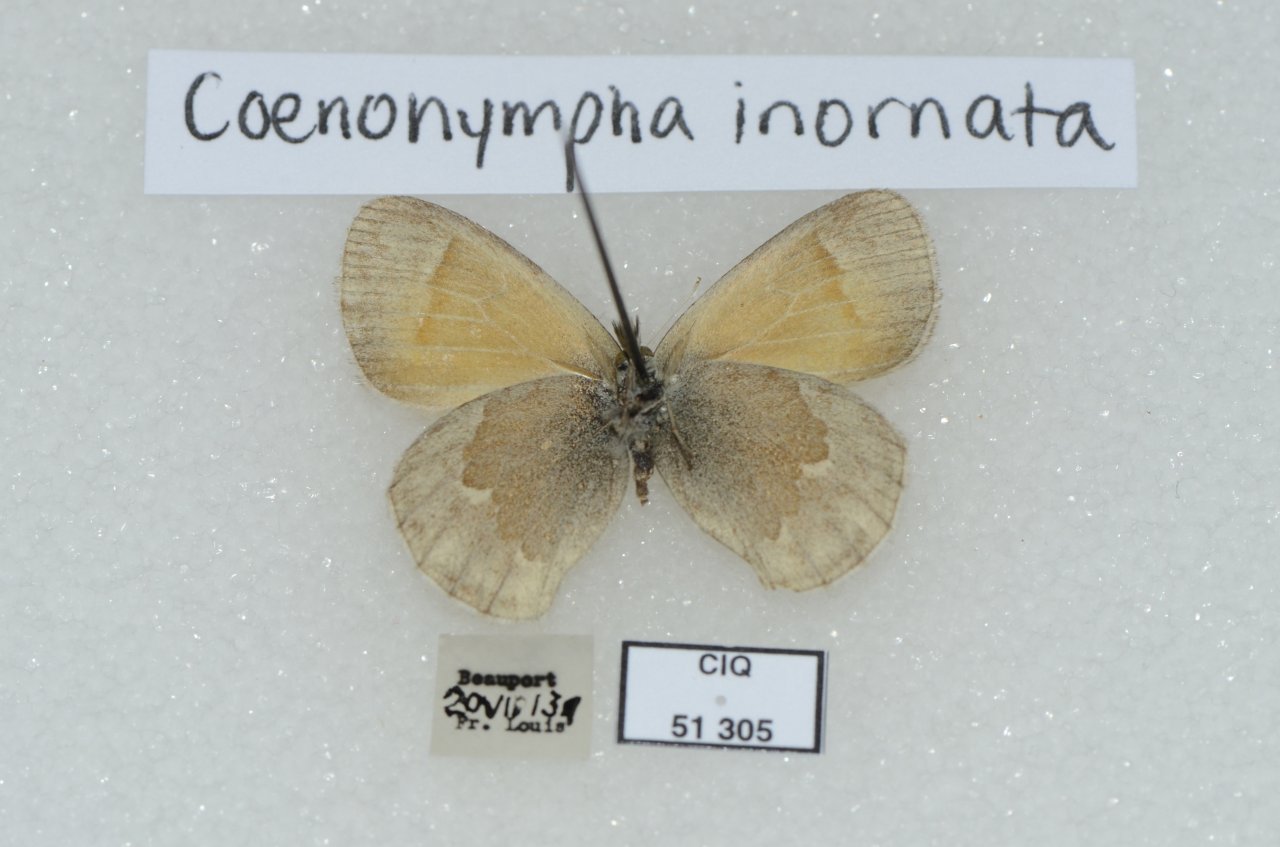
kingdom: Animalia
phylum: Arthropoda
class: Insecta
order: Lepidoptera
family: Nymphalidae
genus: Coenonympha
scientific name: Coenonympha tullia
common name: Large Heath
